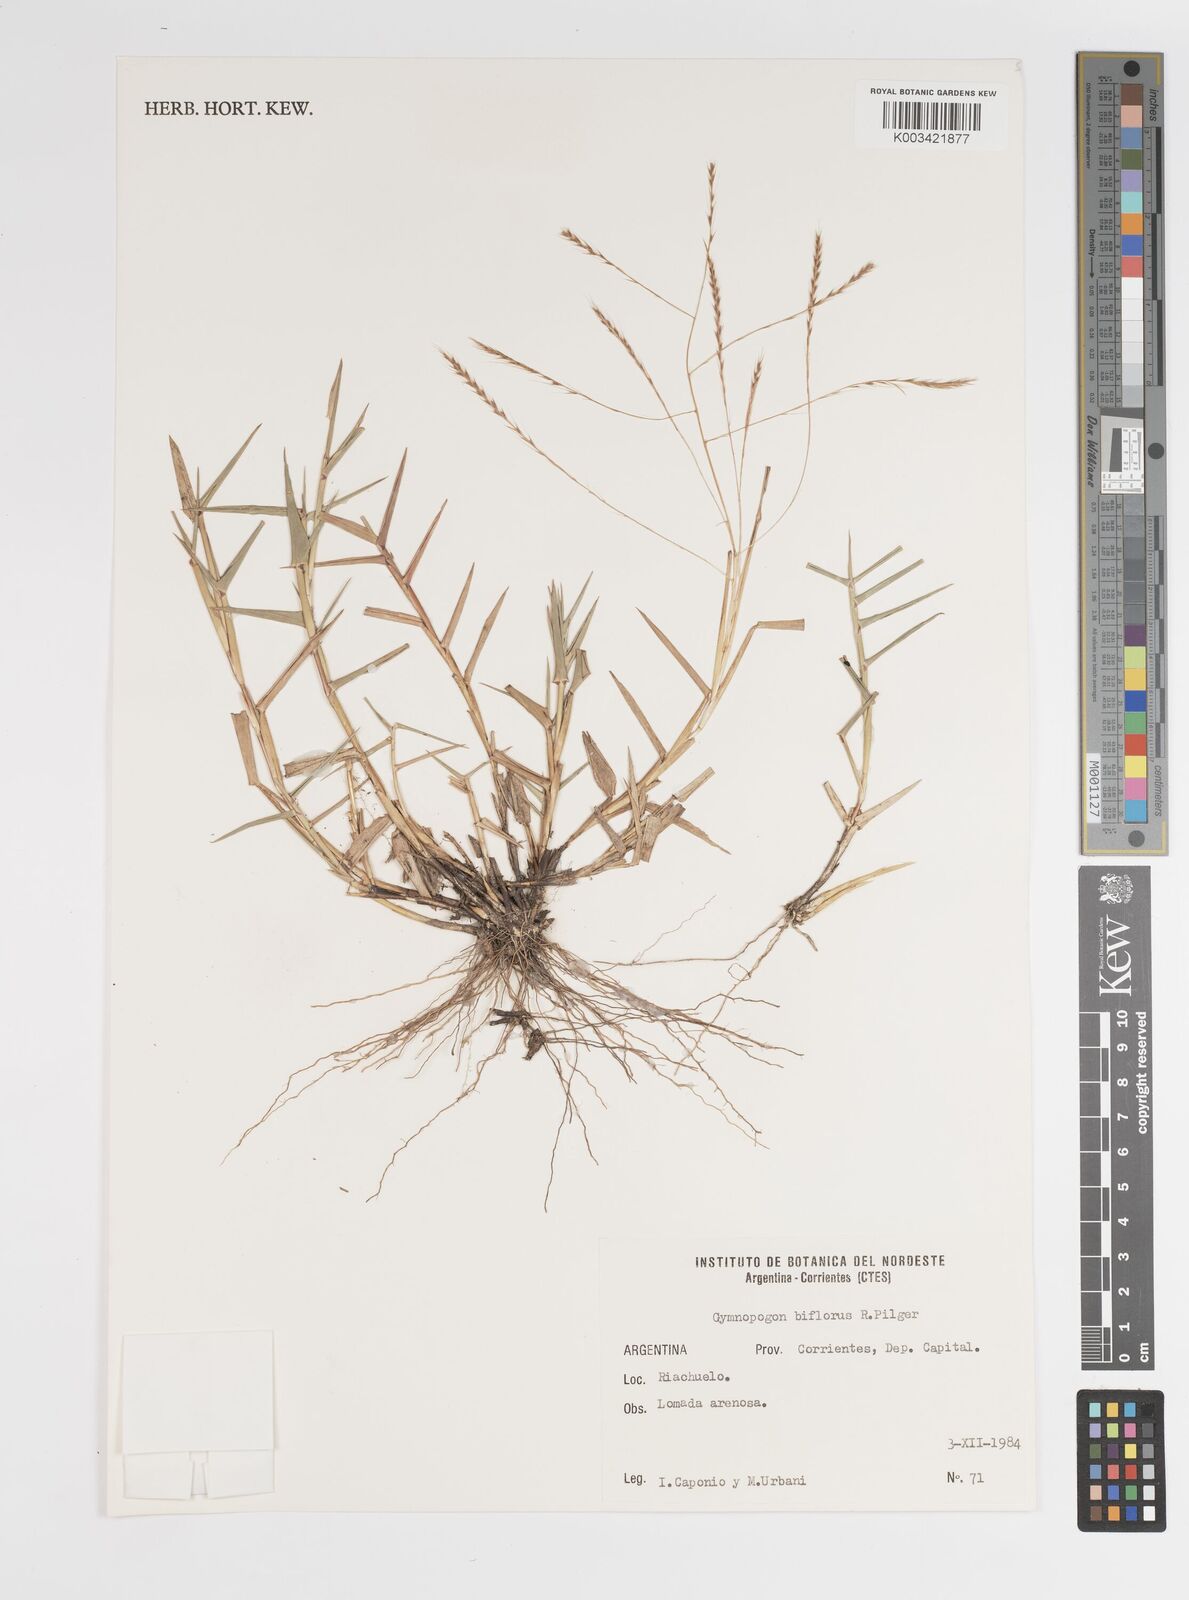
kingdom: Plantae
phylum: Tracheophyta
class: Liliopsida
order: Poales
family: Poaceae
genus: Gymnopogon
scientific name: Gymnopogon spicatus
